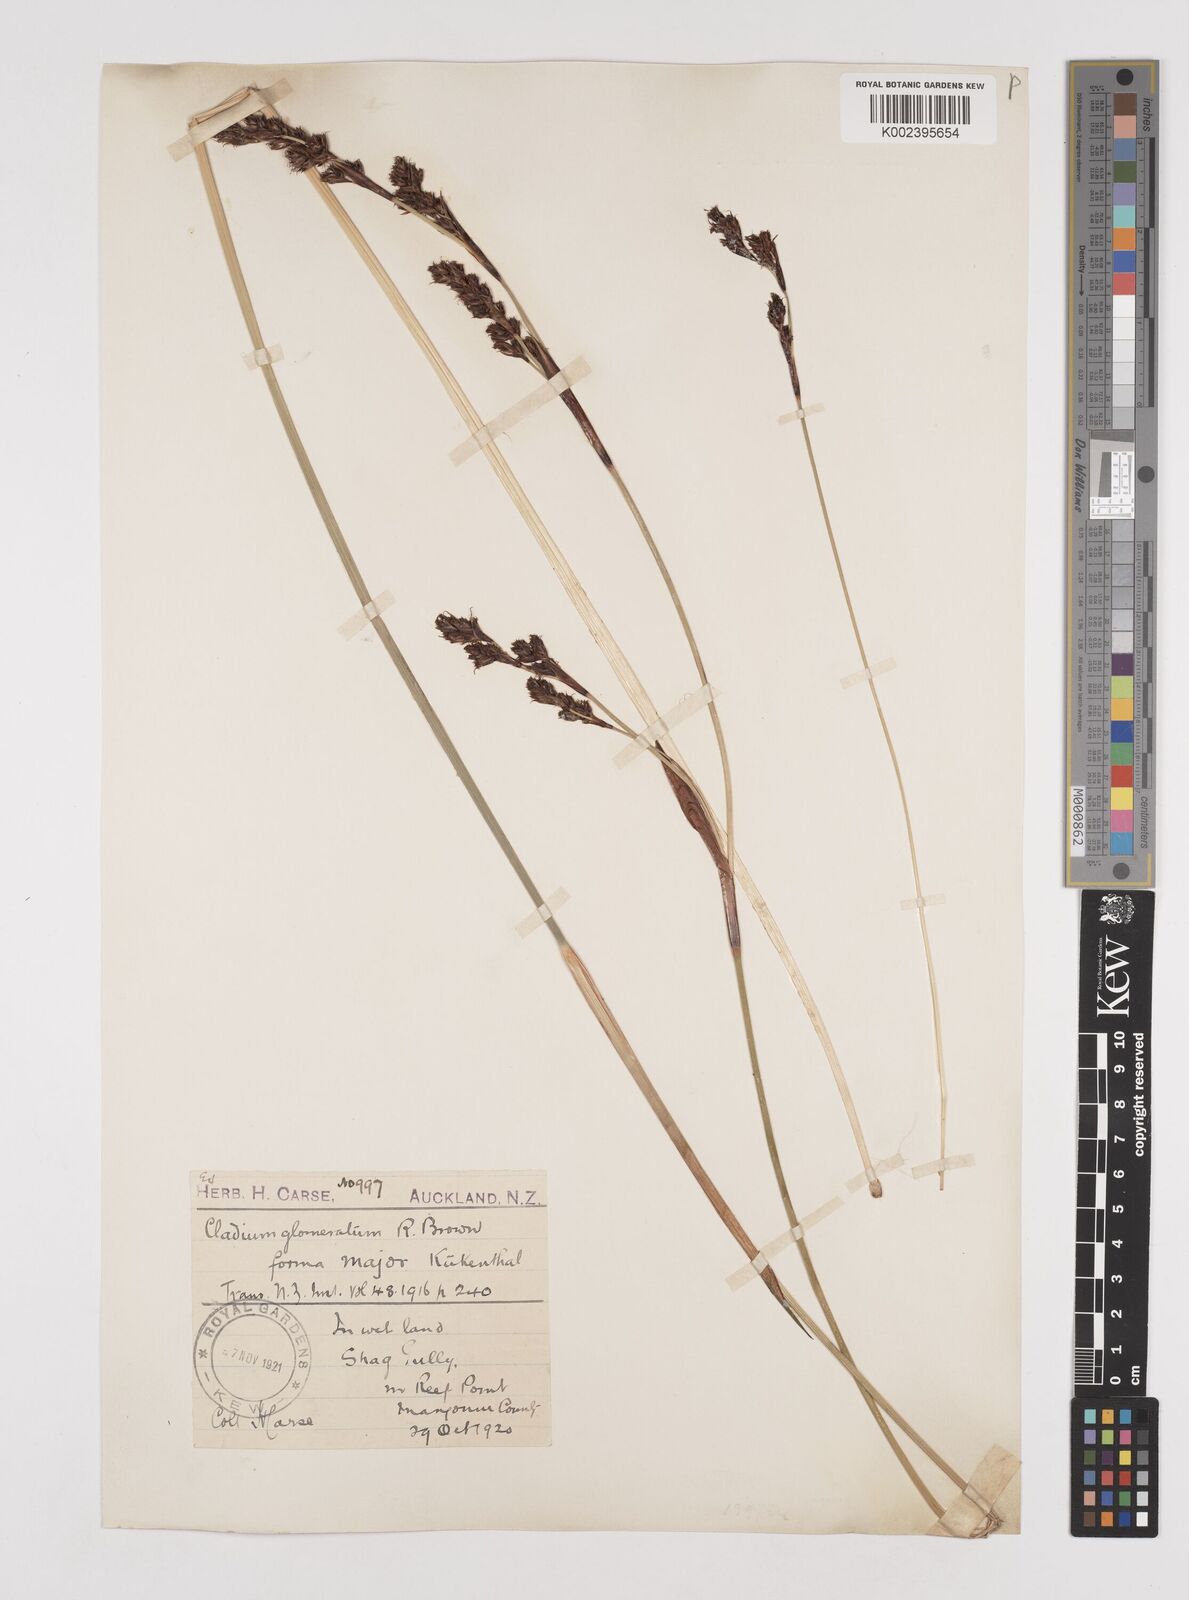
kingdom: Plantae
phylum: Tracheophyta
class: Liliopsida
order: Poales
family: Cyperaceae
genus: Machaerina
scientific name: Machaerina rubiginosa
